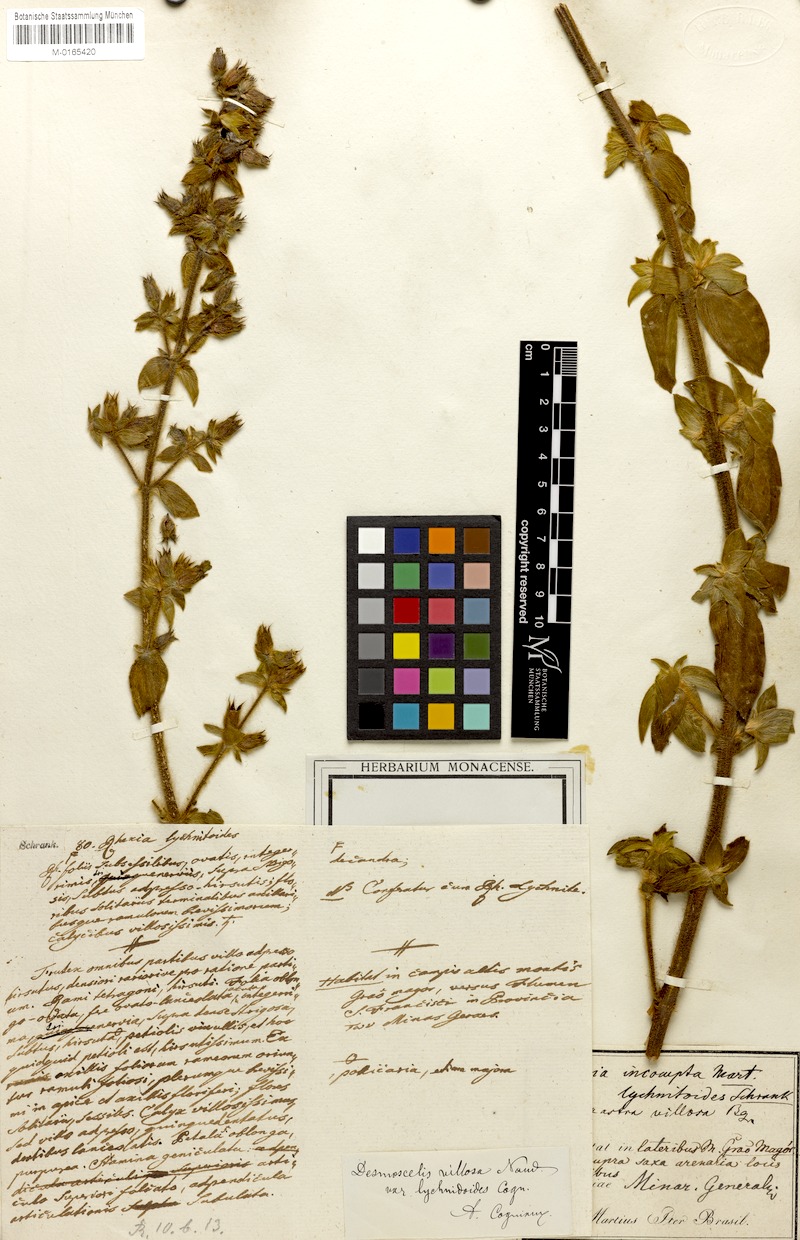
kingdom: Plantae
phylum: Tracheophyta
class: Magnoliopsida
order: Myrtales
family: Melastomataceae
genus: Desmoscelis
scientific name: Desmoscelis villosa
